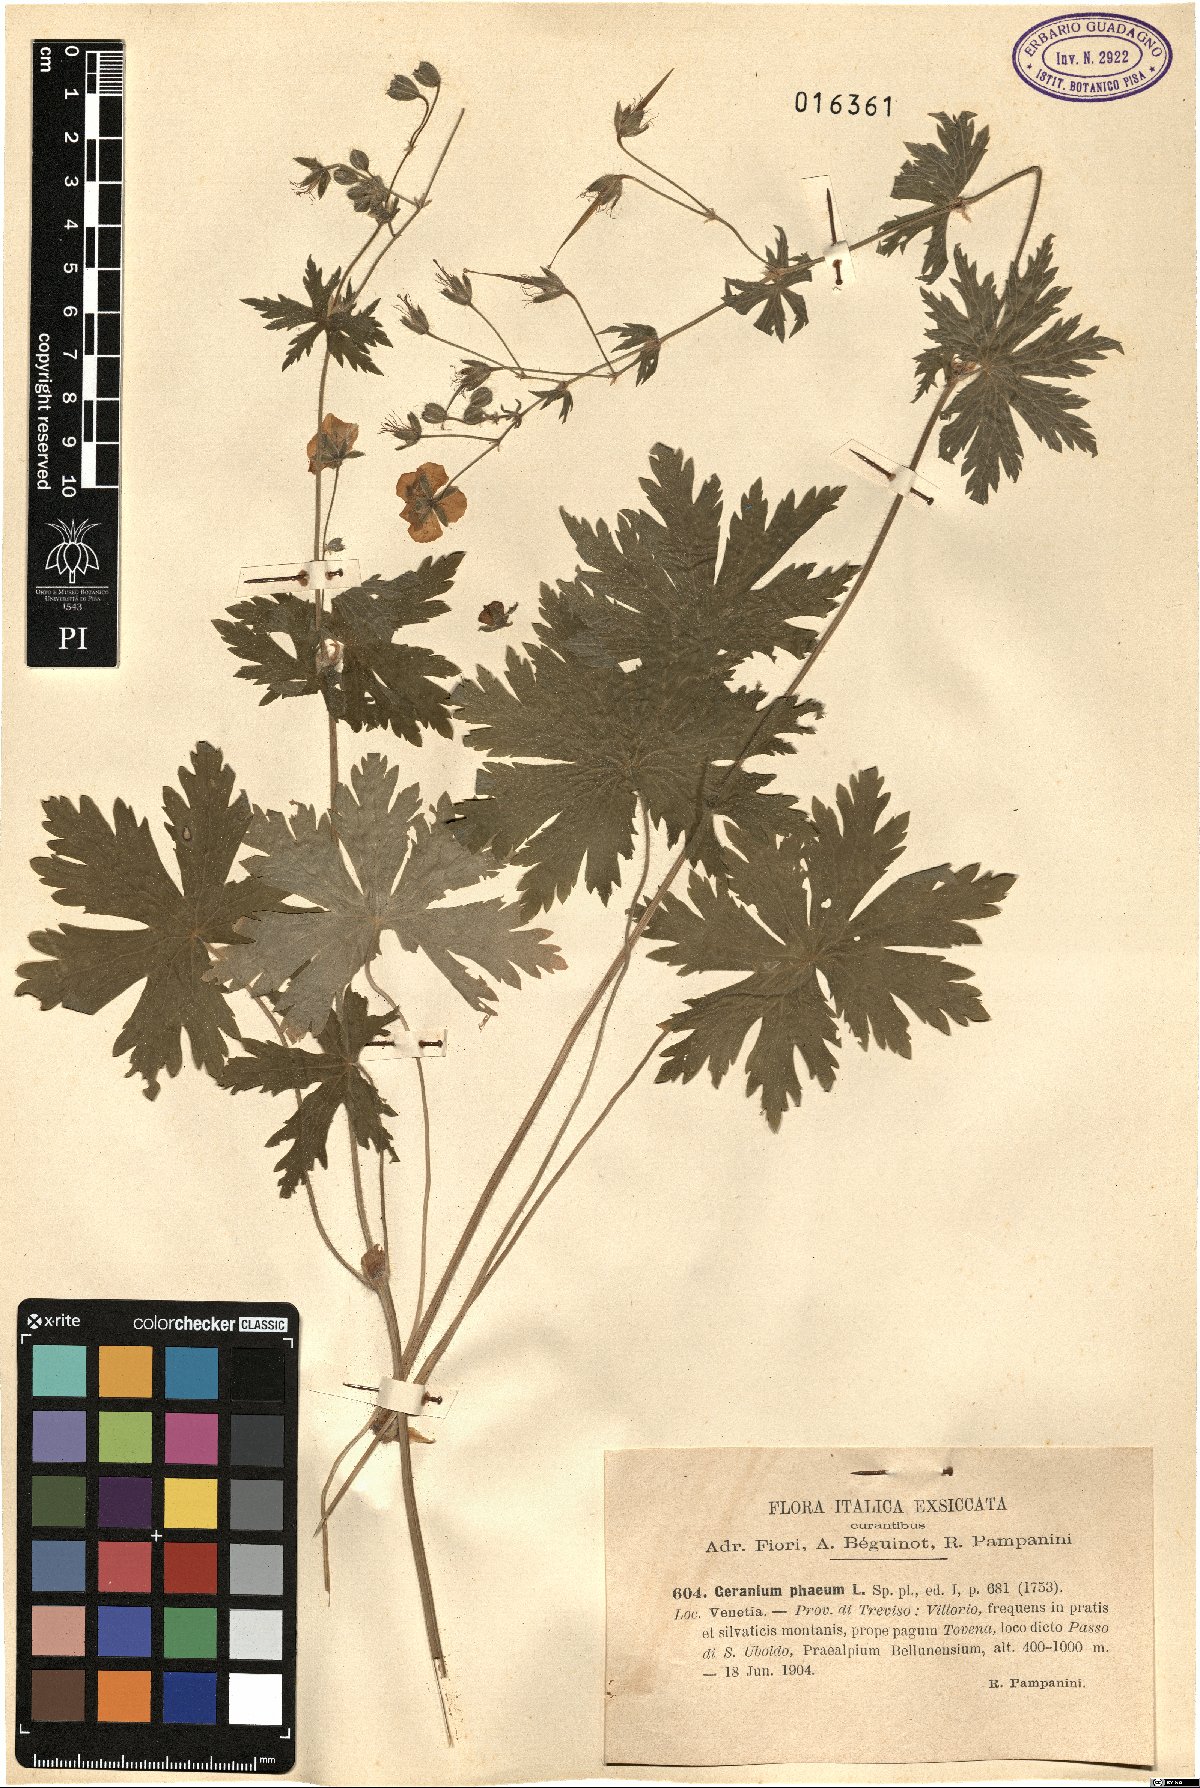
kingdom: Plantae
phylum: Tracheophyta
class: Magnoliopsida
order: Geraniales
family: Geraniaceae
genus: Geranium
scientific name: Geranium phaeum
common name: Dusky crane's-bill
